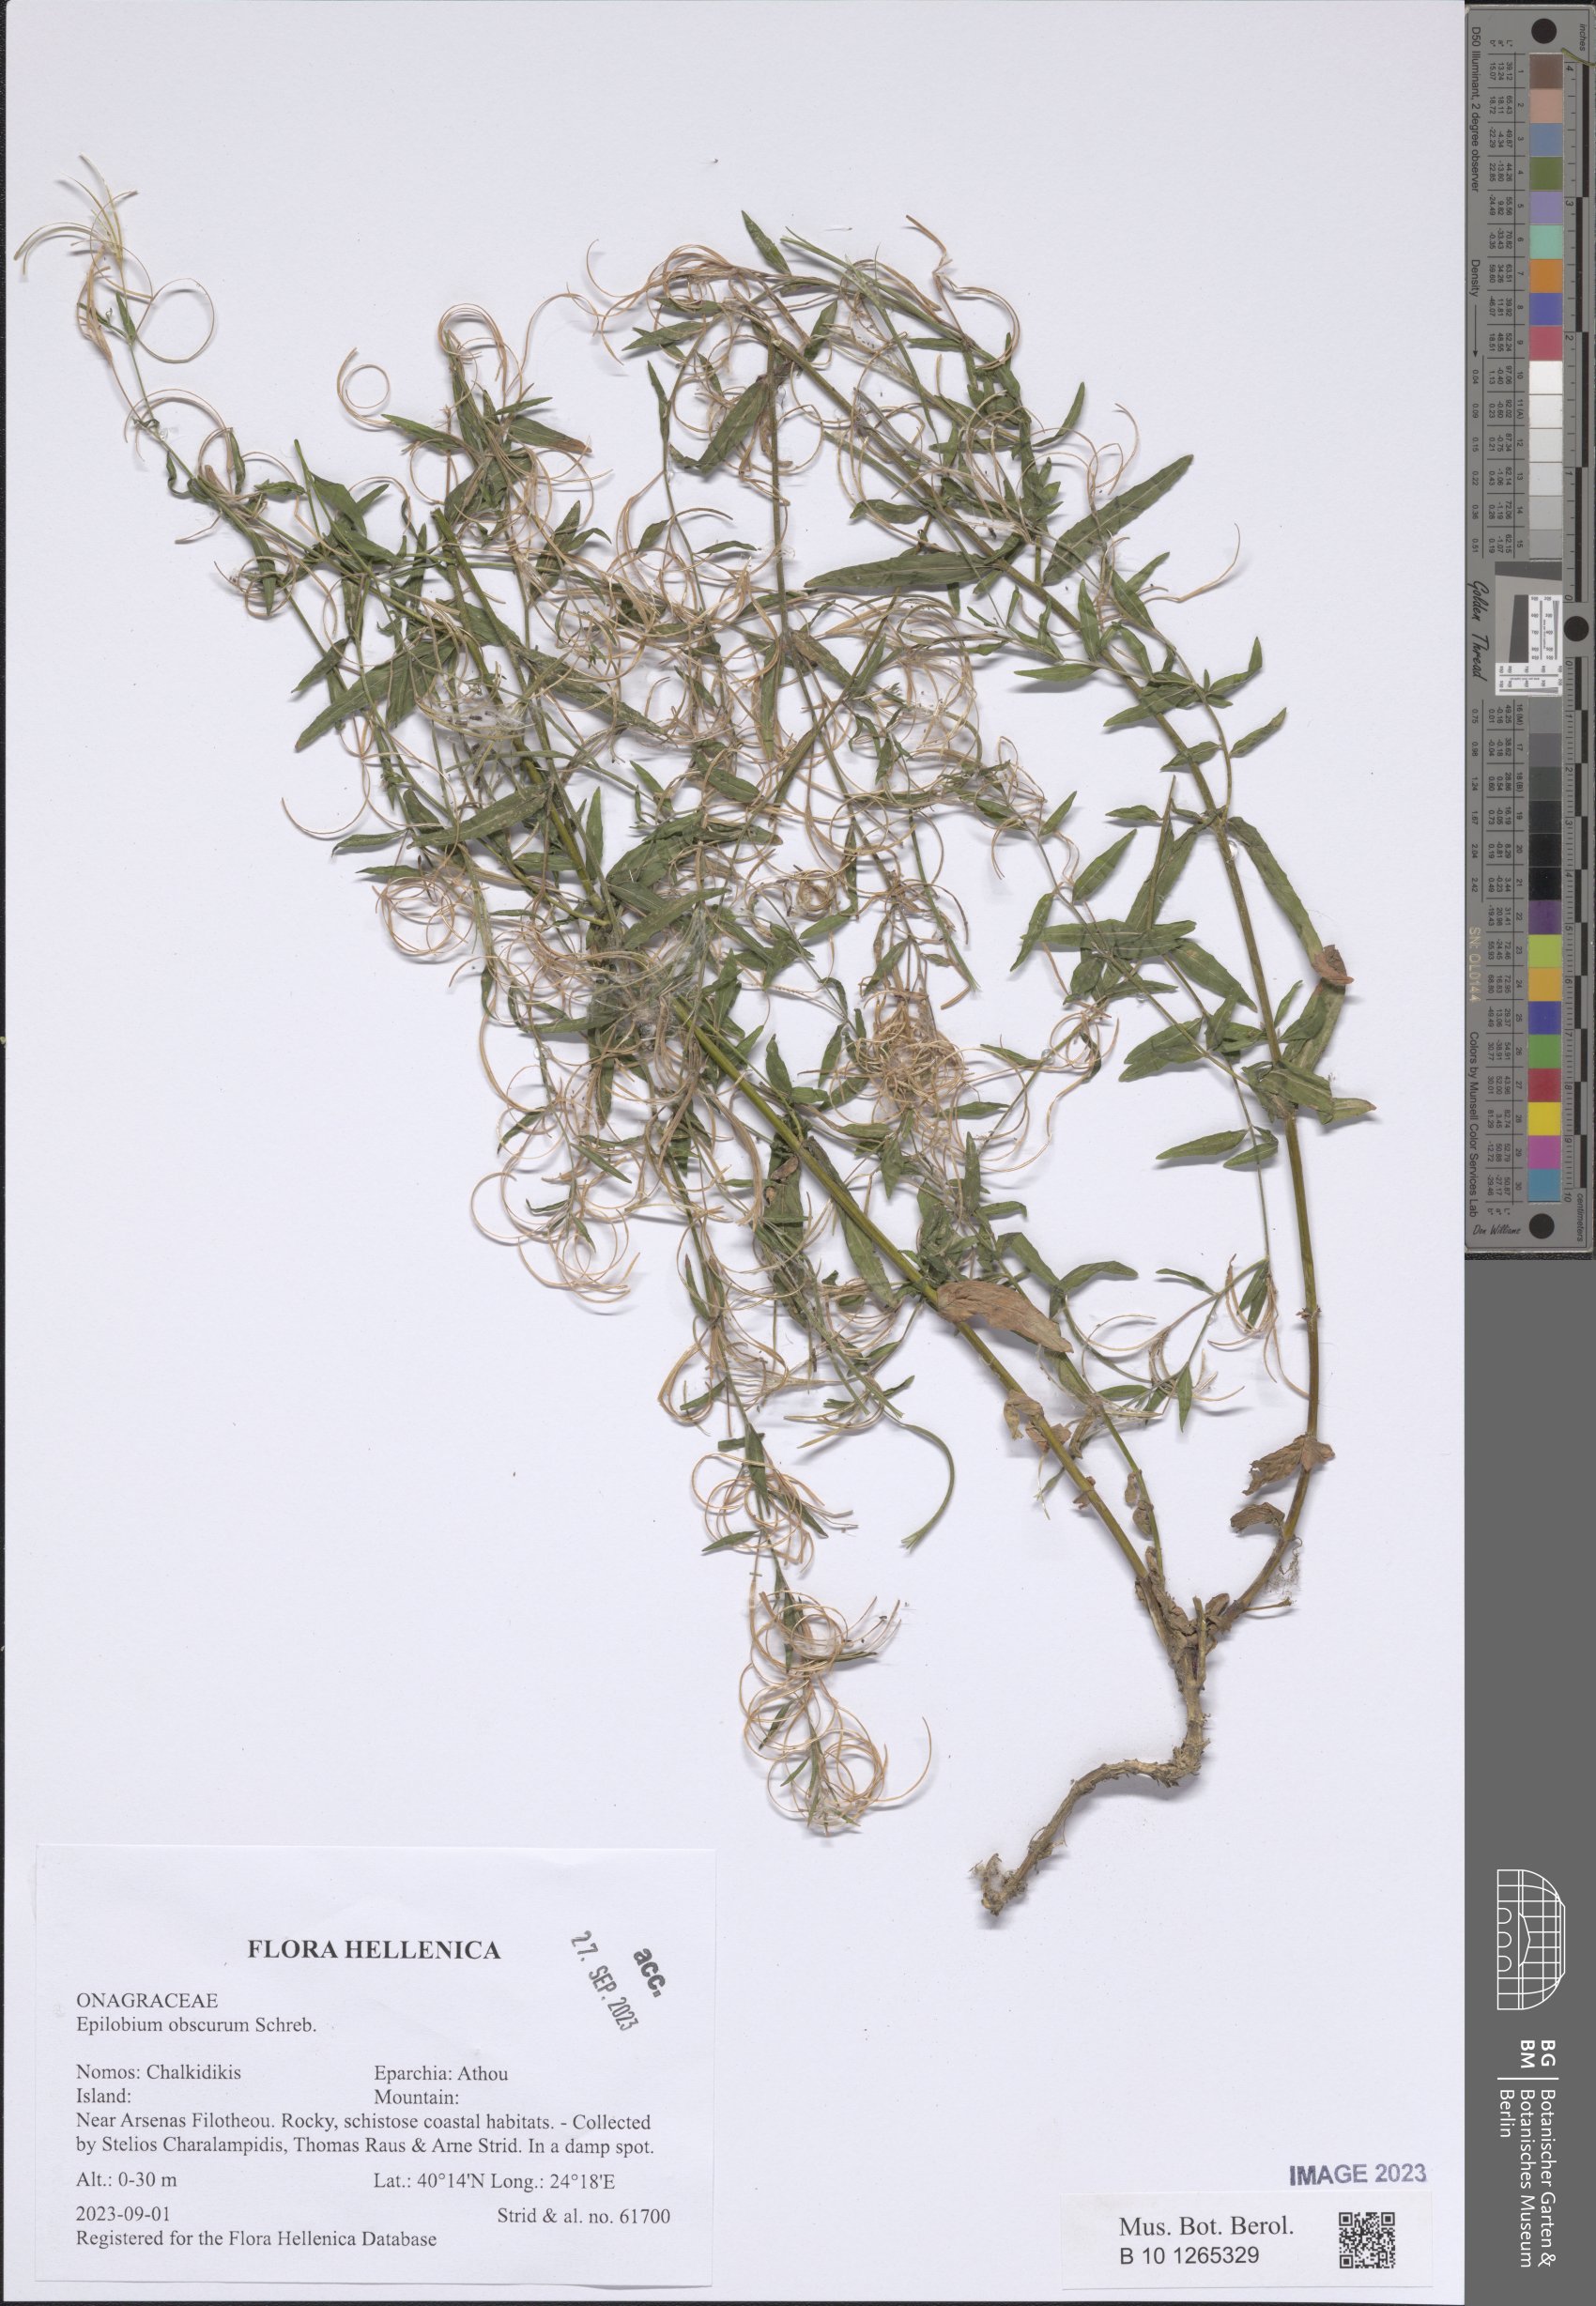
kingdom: Plantae
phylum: Tracheophyta
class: Magnoliopsida
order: Myrtales
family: Onagraceae
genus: Epilobium
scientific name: Epilobium obscurum
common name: Short-fruited willowherb
